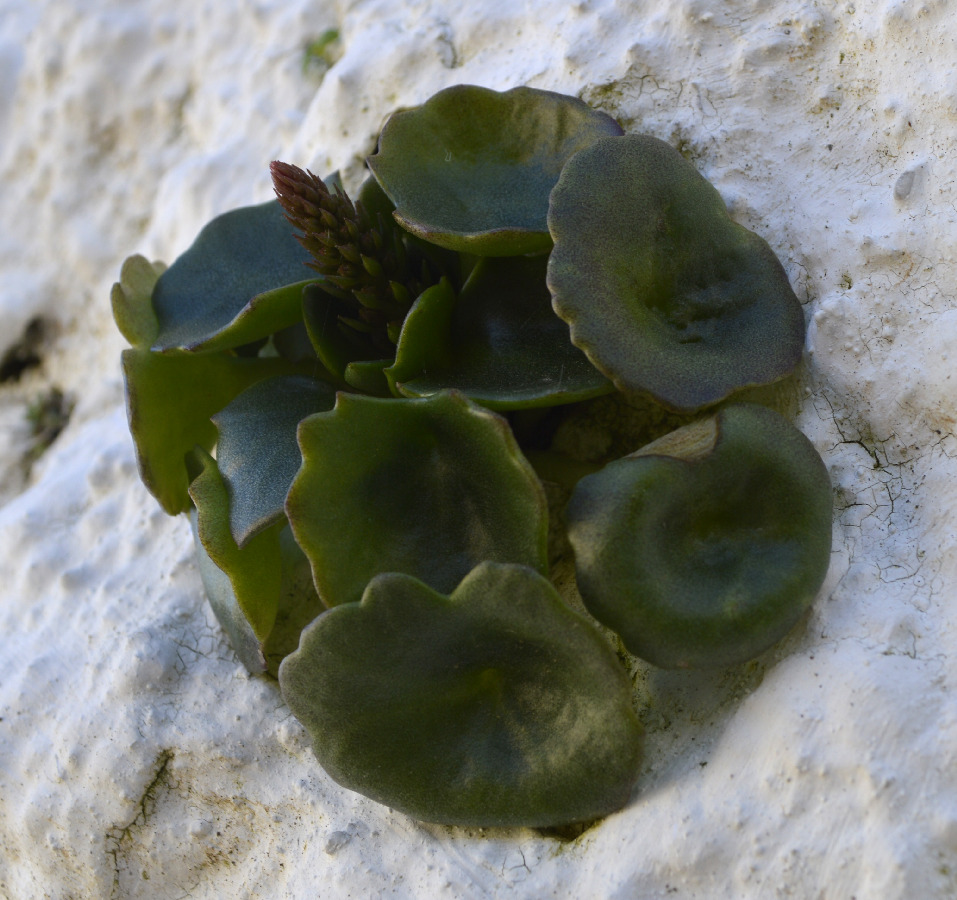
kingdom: Plantae
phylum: Tracheophyta
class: Magnoliopsida
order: Saxifragales
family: Crassulaceae
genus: Umbilicus
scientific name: Umbilicus horizontalis
